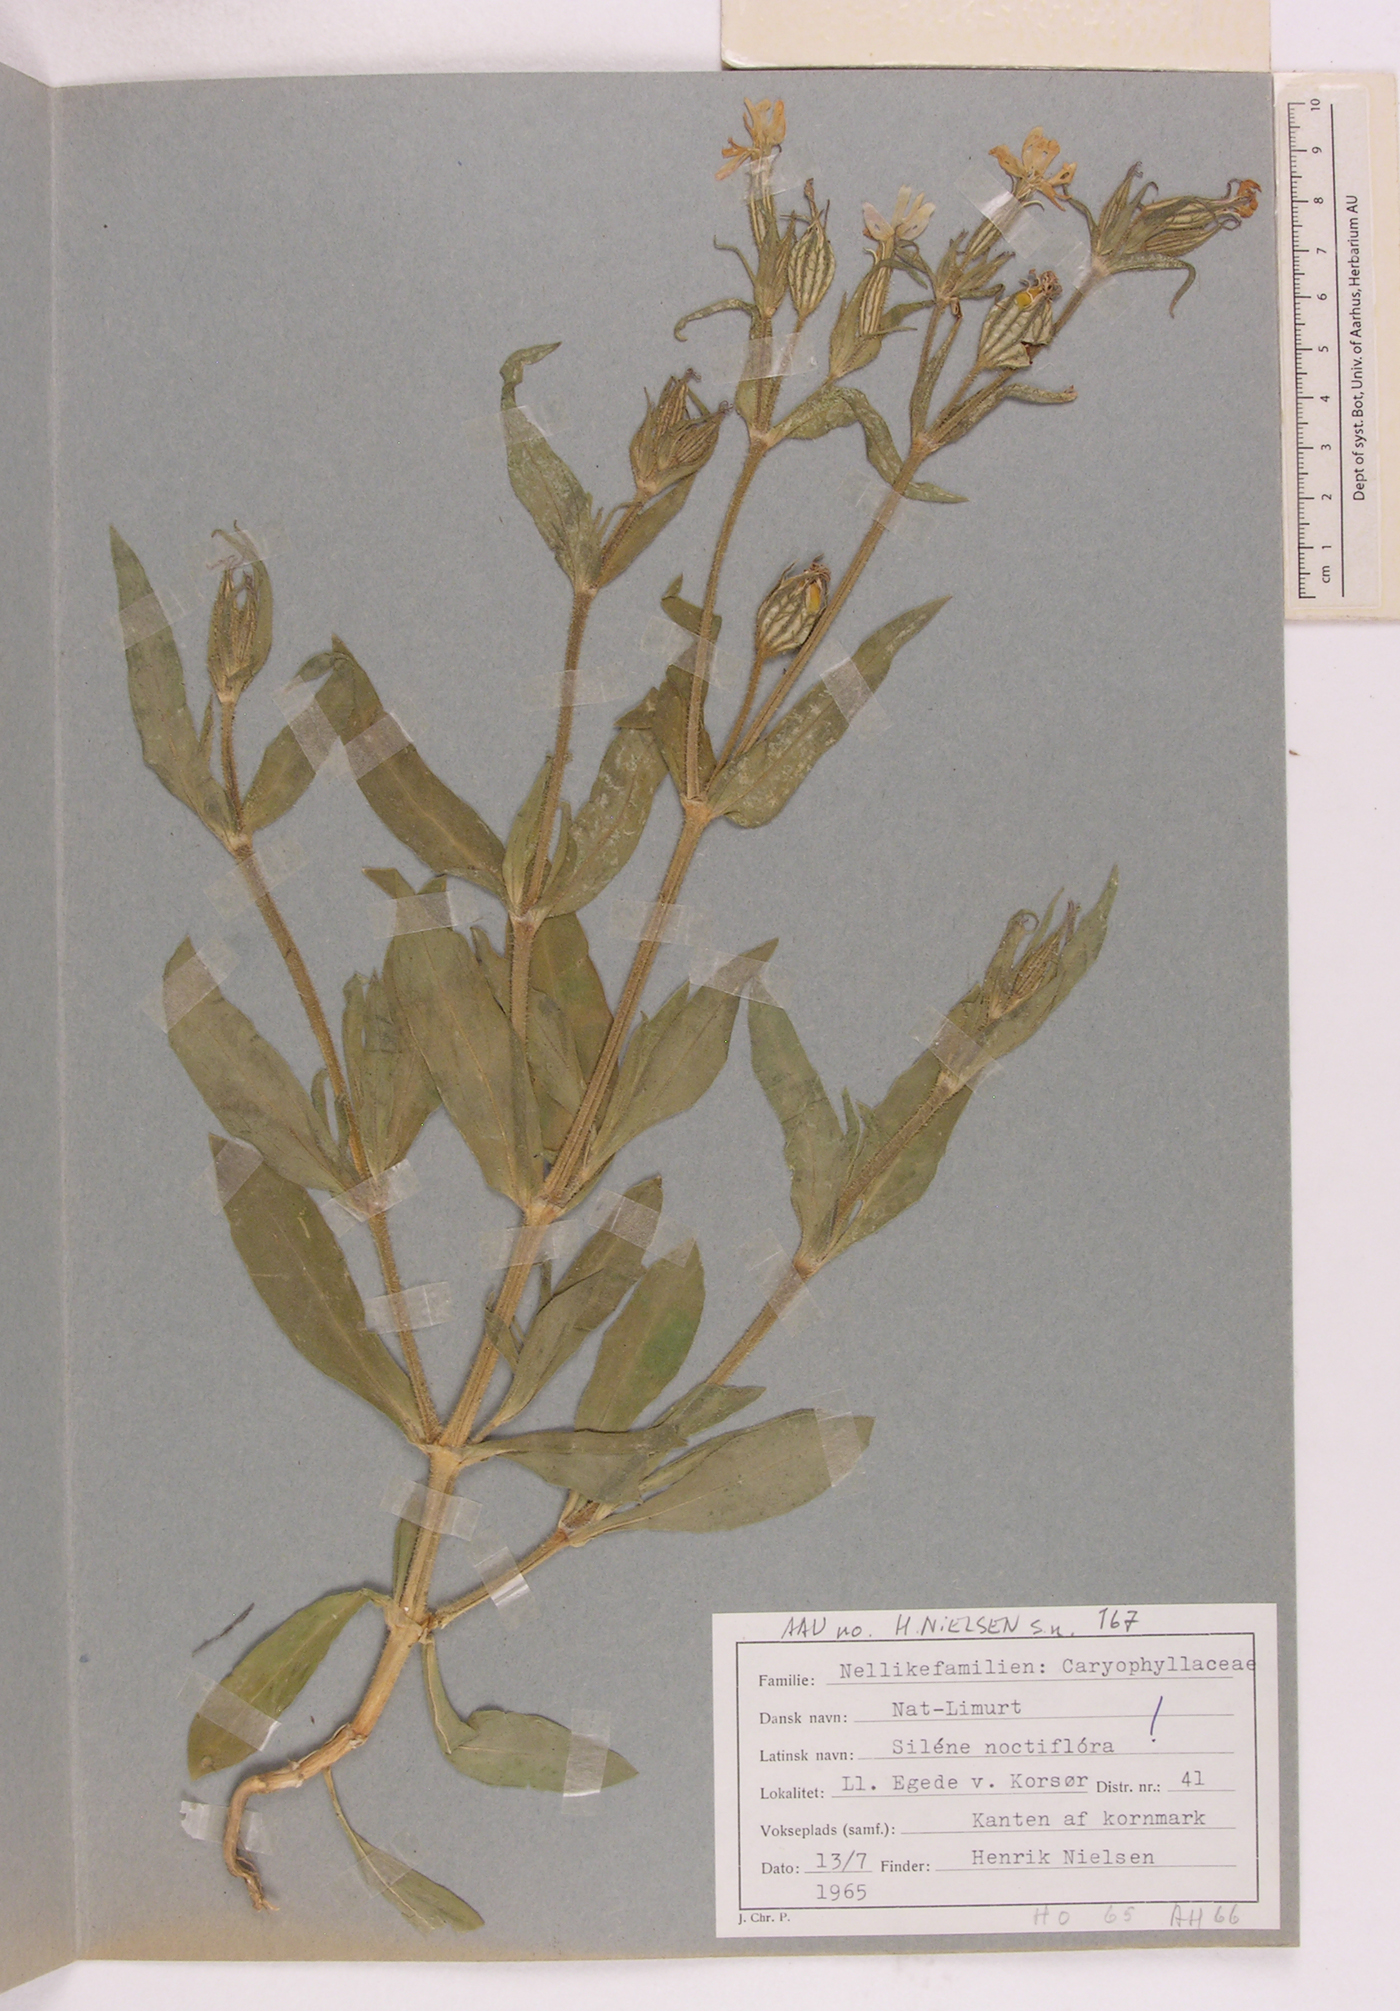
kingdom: Plantae
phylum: Tracheophyta
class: Magnoliopsida
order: Caryophyllales
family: Caryophyllaceae
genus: Silene
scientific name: Silene noctiflora
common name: Night-flowering catchfly
